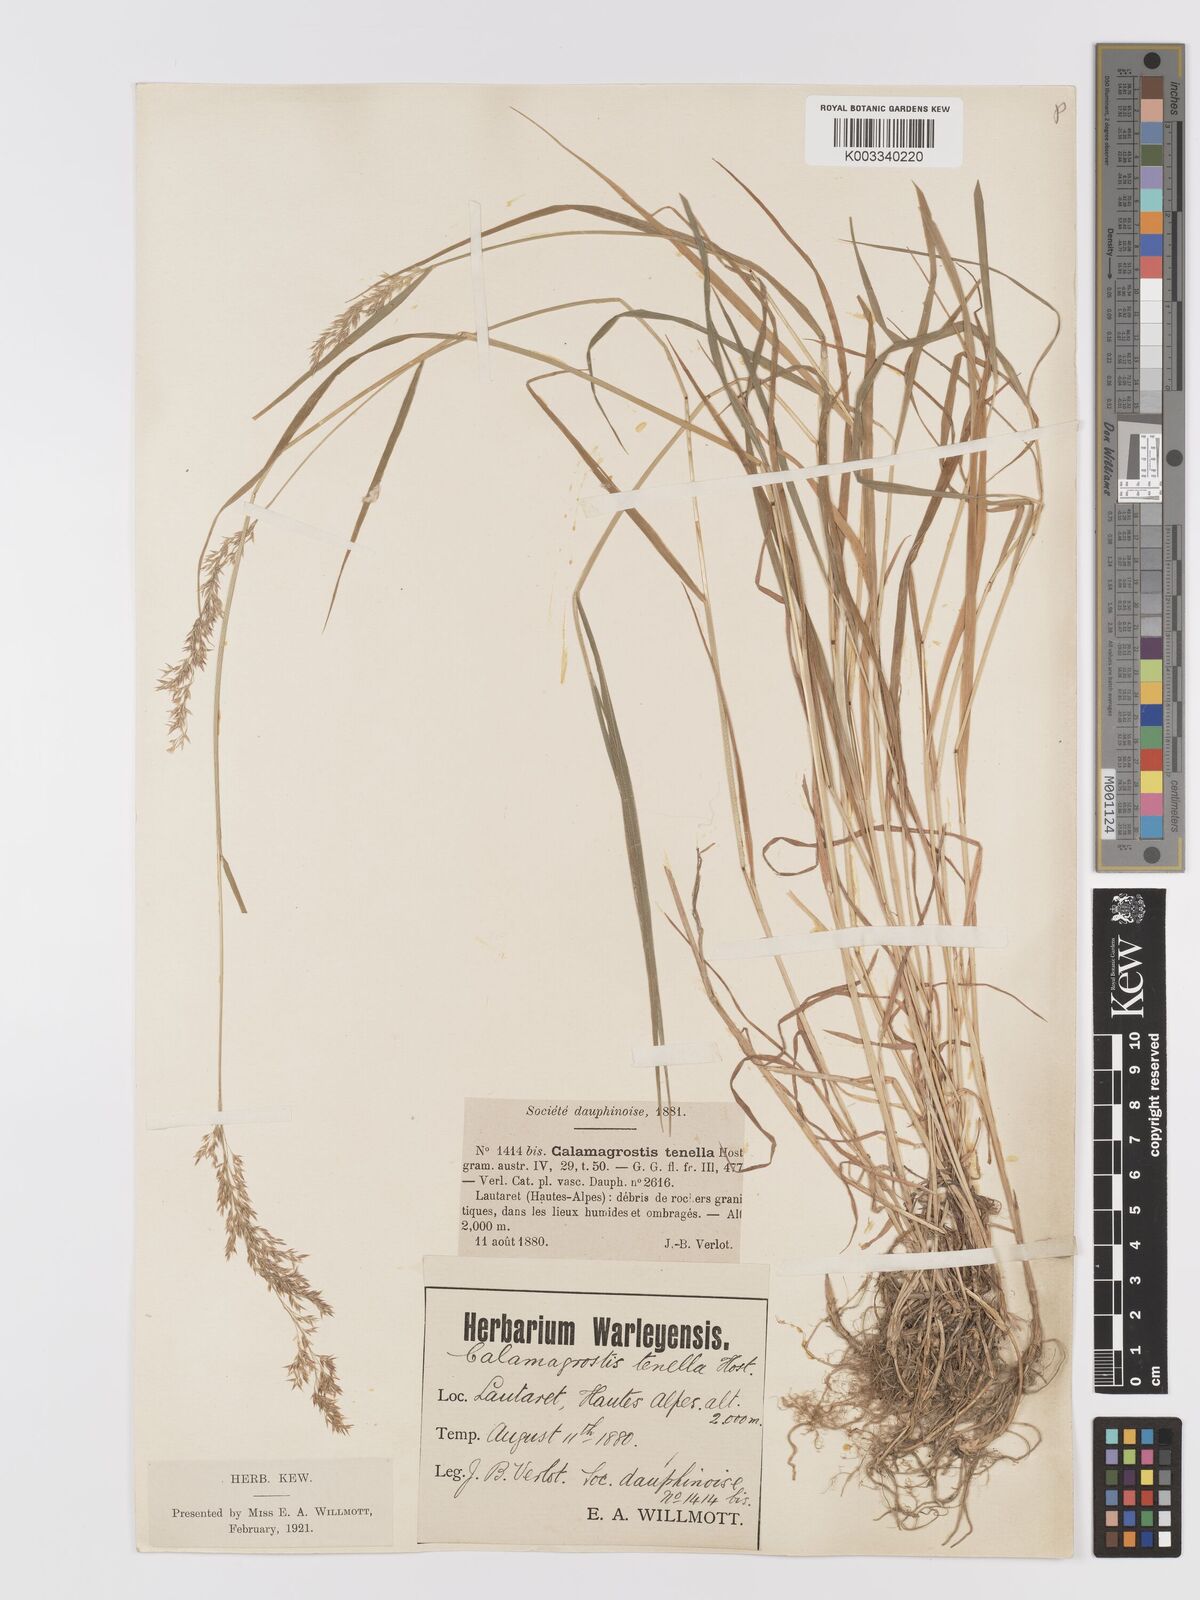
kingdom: Plantae
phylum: Tracheophyta
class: Liliopsida
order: Poales
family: Poaceae
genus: Agrostis
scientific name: Agrostis schraderiana
